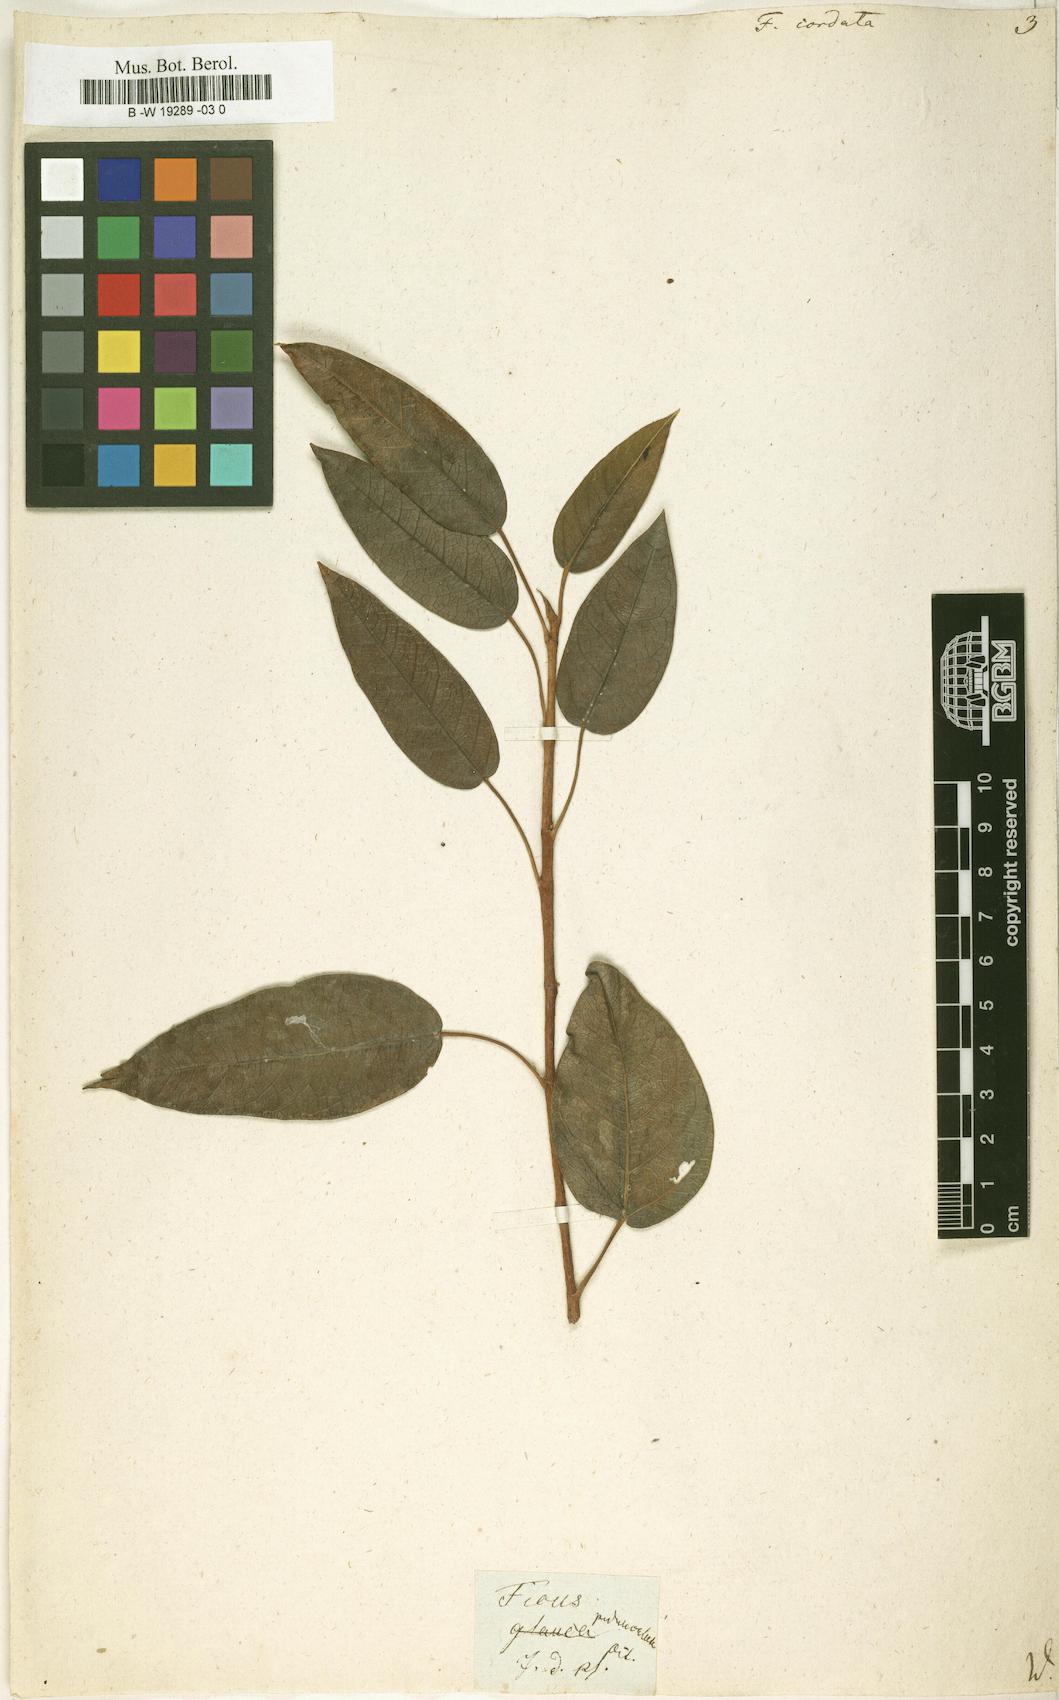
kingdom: Plantae
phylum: Tracheophyta
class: Magnoliopsida
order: Rosales
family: Moraceae
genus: Ficus
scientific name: Ficus cordata
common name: Namaqua rock fig
